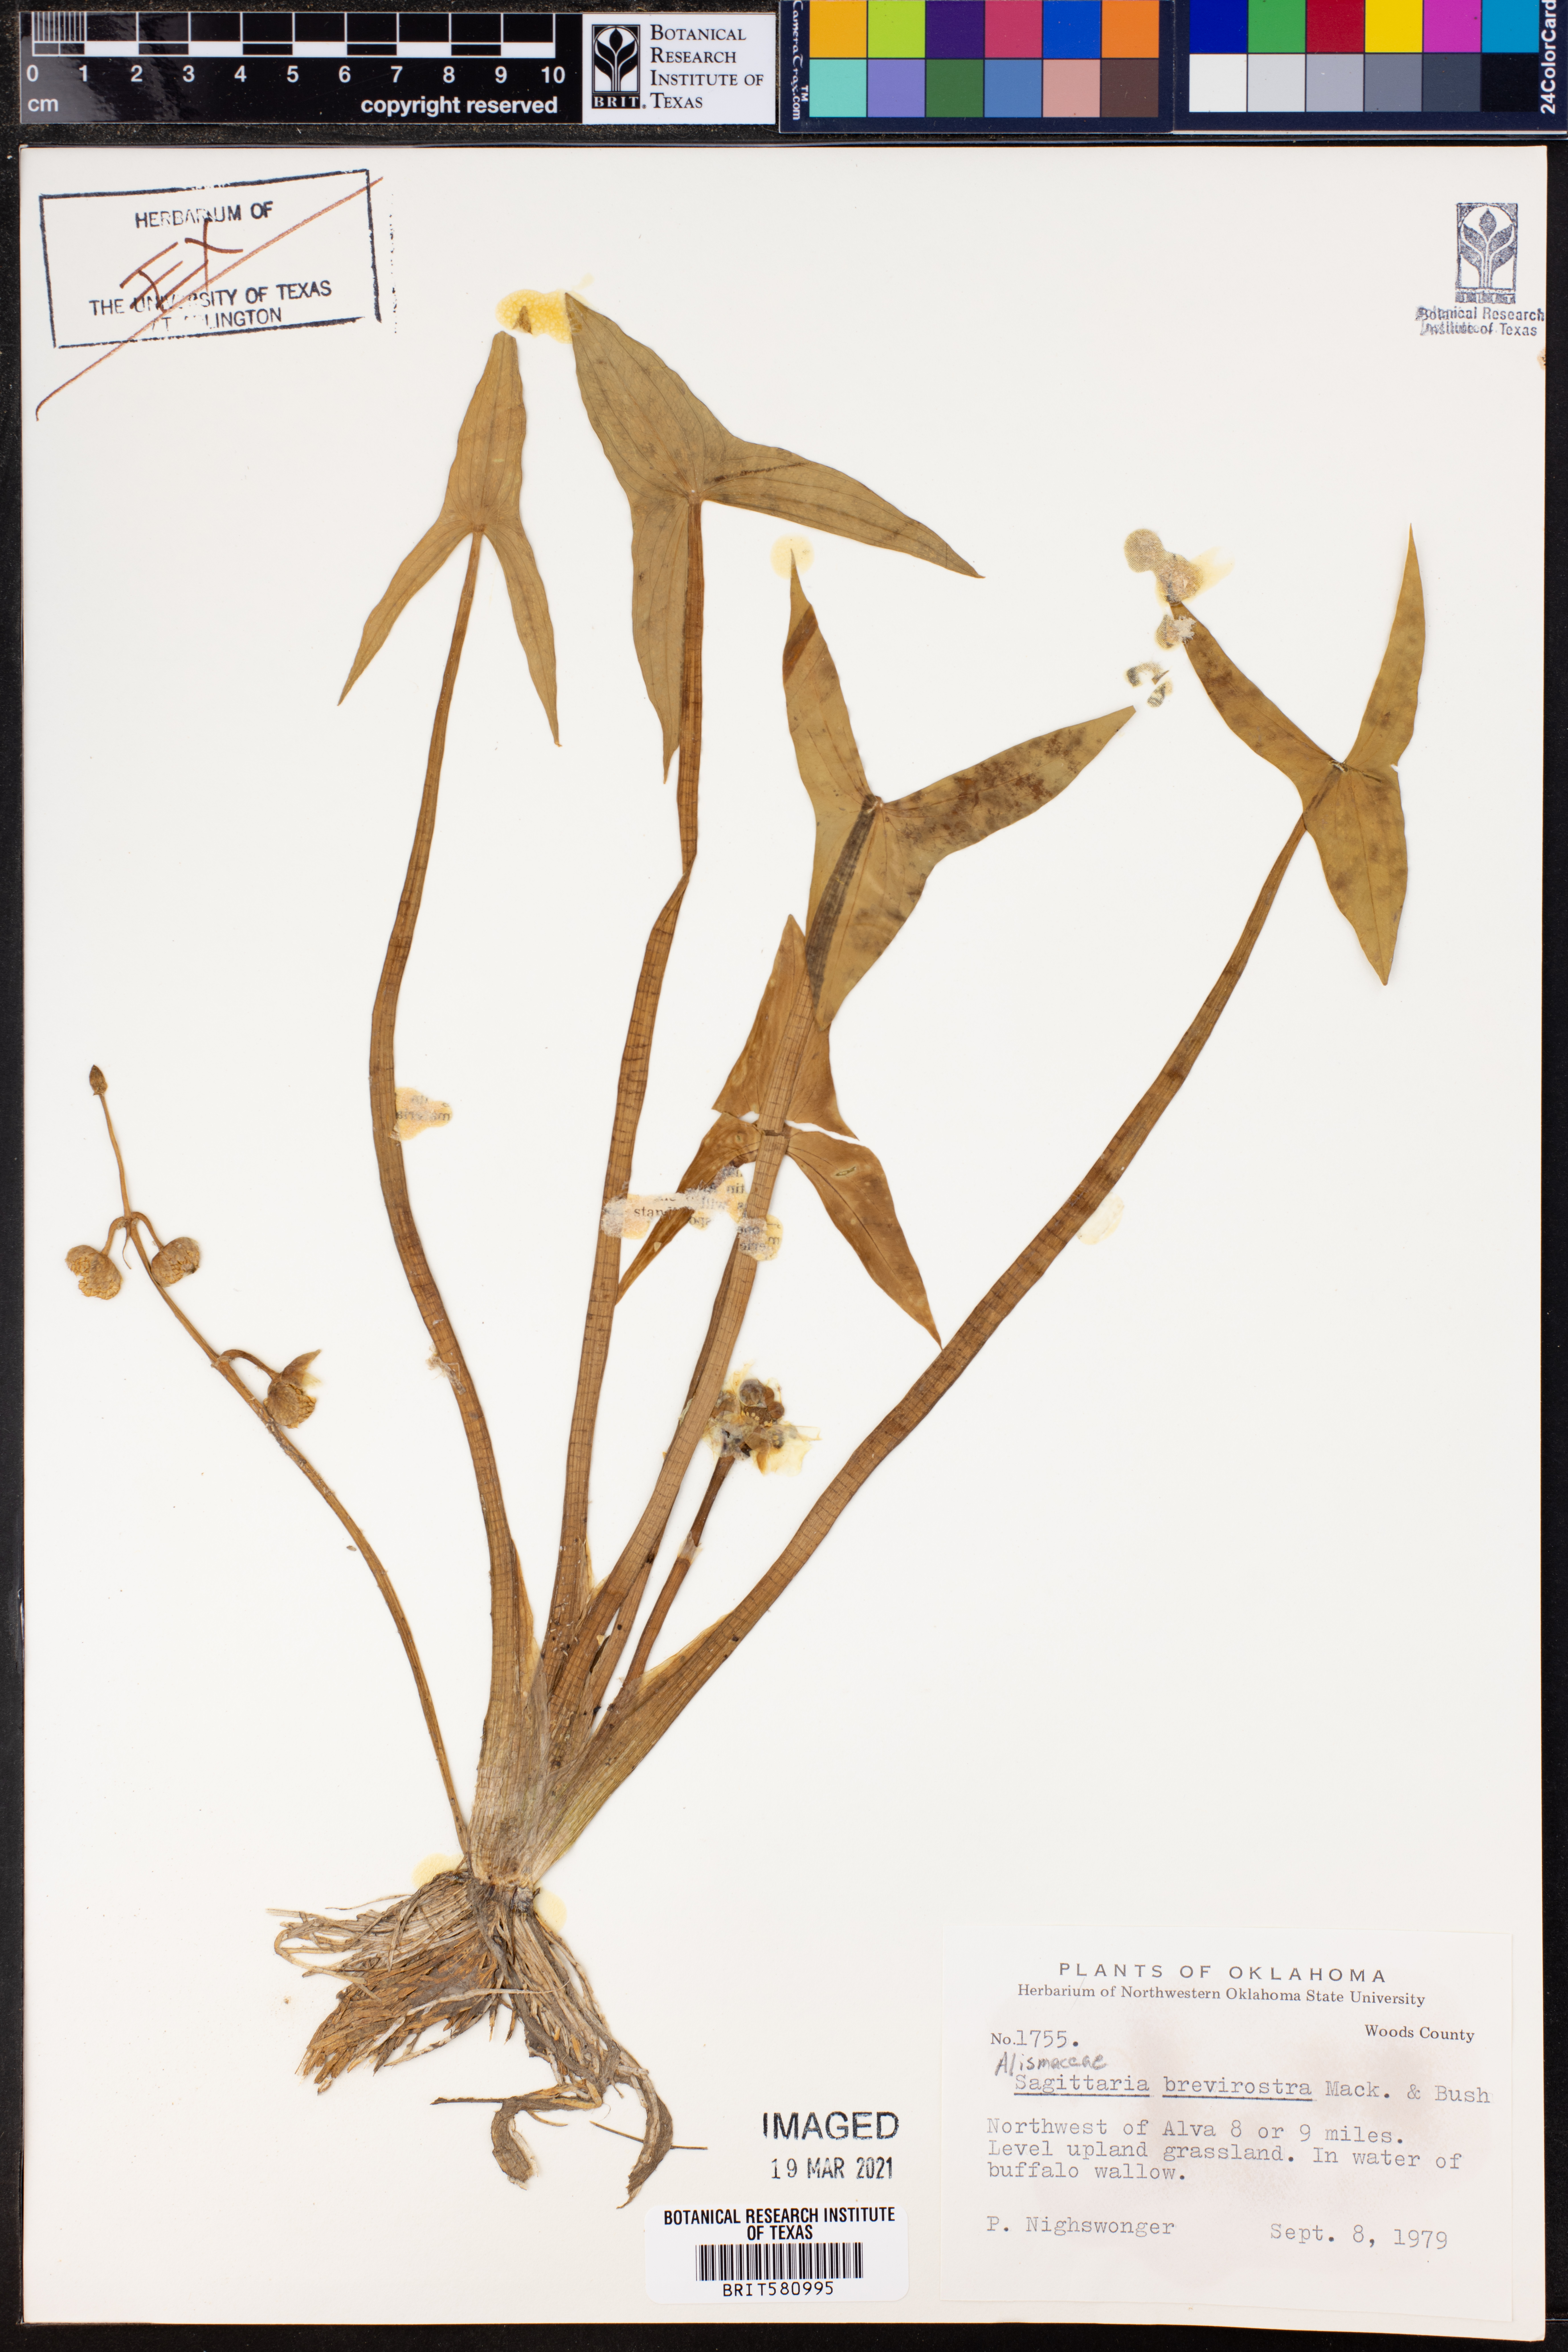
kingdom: Plantae
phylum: Tracheophyta
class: Liliopsida
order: Alismatales
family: Alismataceae
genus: Sagittaria
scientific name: Sagittaria brevirostra
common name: Midwestern arrowhead
